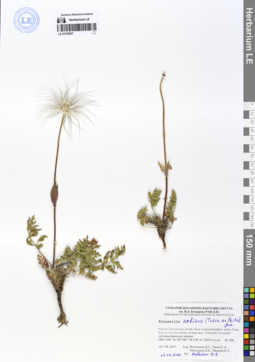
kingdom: Plantae
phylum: Tracheophyta
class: Magnoliopsida
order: Ranunculales
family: Ranunculaceae
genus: Pulsatilla
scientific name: Pulsatilla ambigua
